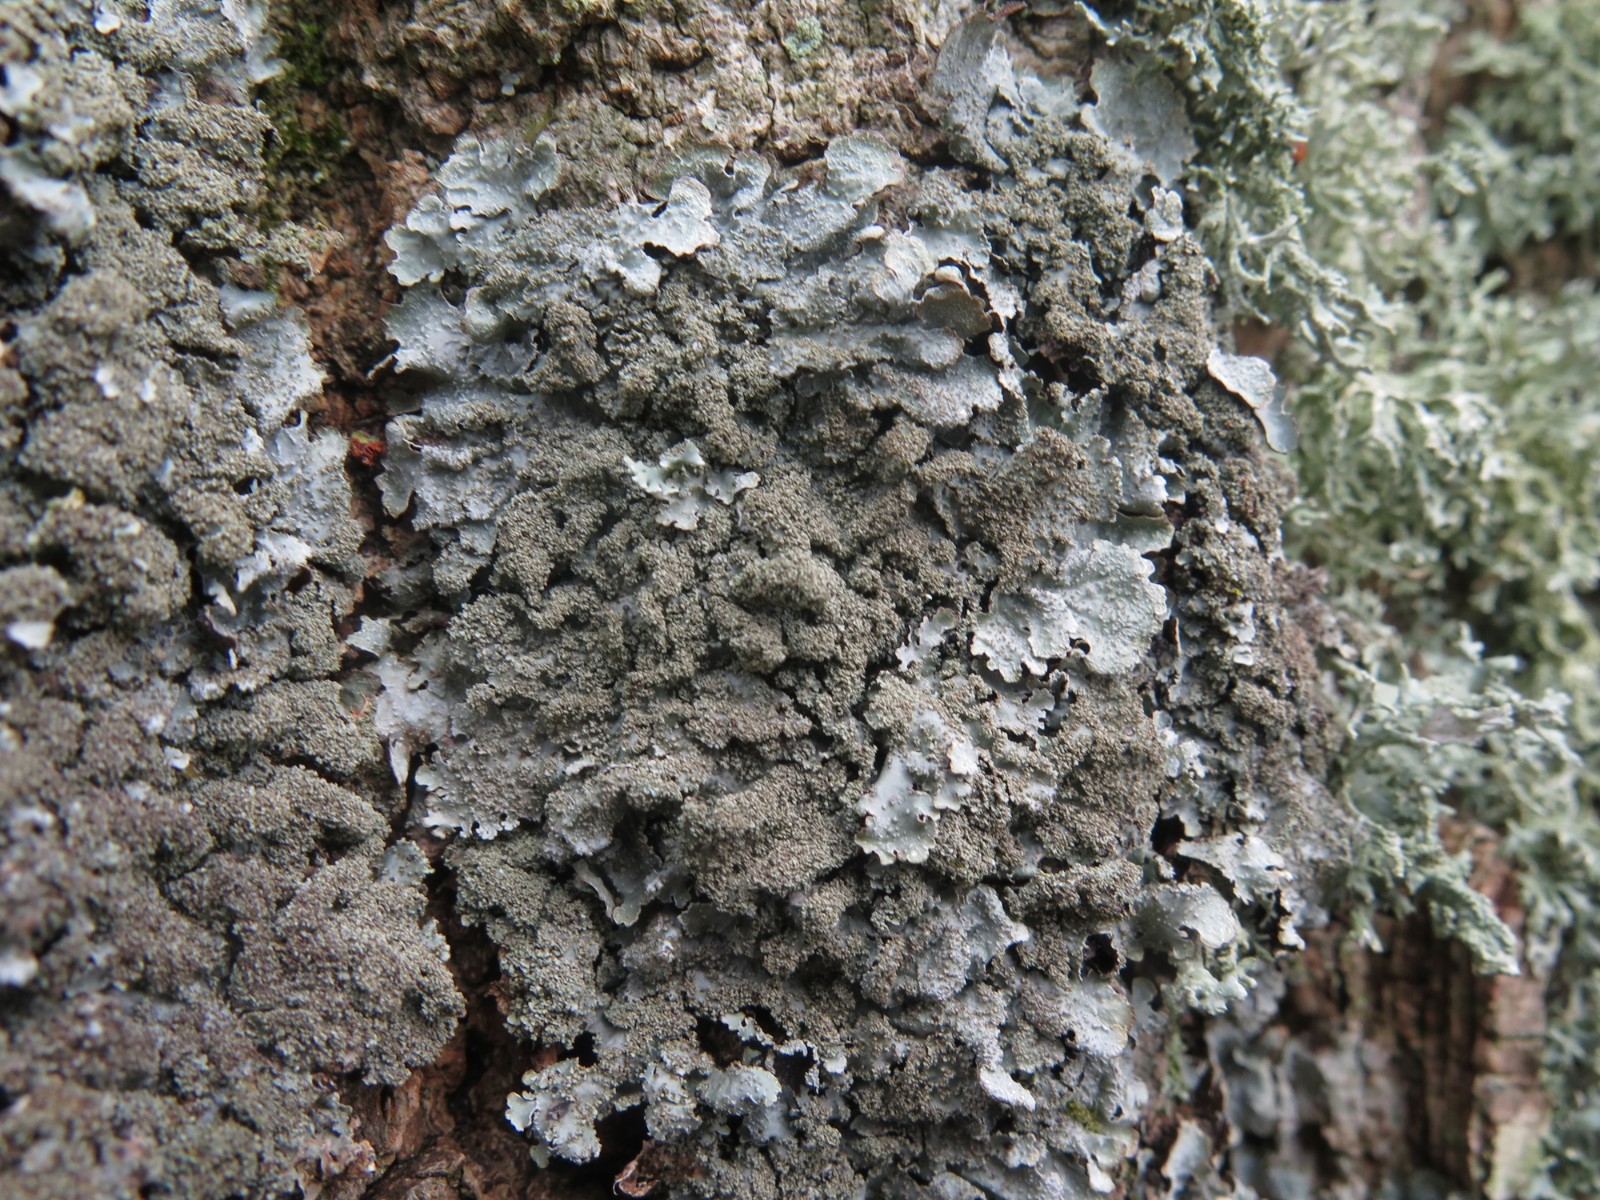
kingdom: Fungi
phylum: Ascomycota
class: Lecanoromycetes
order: Lecanorales
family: Parmeliaceae
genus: Parmelia
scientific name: Parmelia ernstiae
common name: rimstift-skållav
